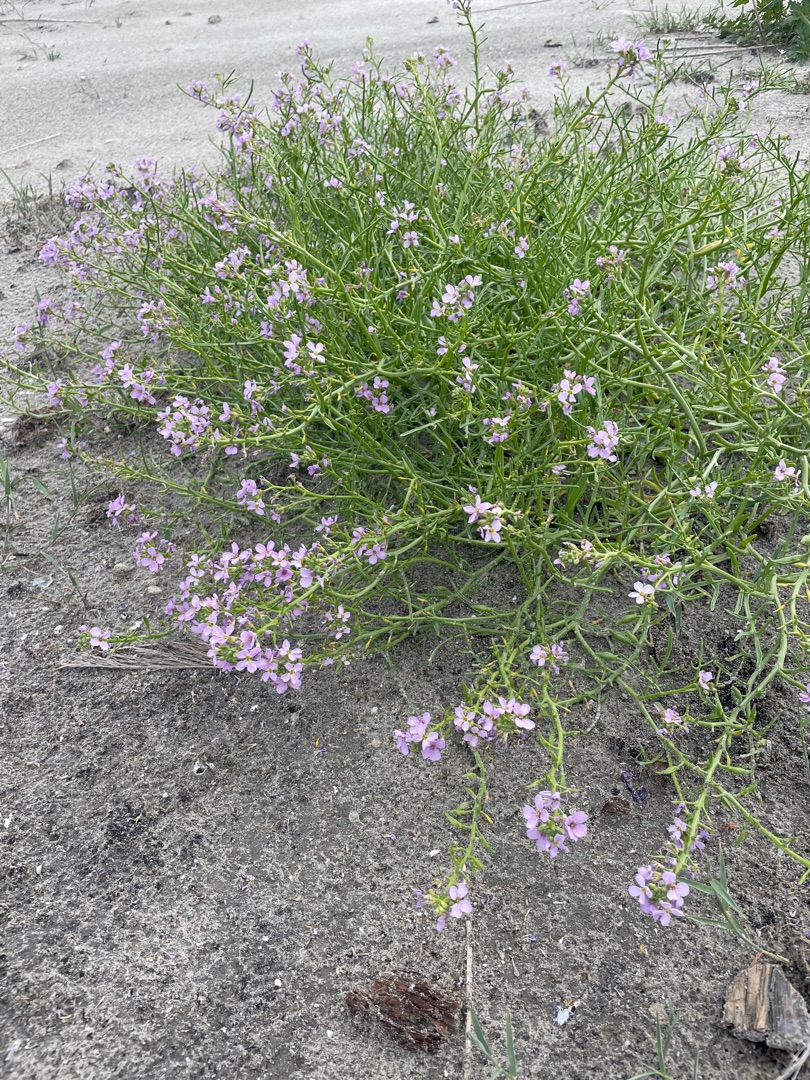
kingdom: Plantae
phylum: Tracheophyta
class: Magnoliopsida
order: Brassicales
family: Brassicaceae
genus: Cakile
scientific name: Cakile maritima
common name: Strandsennep
